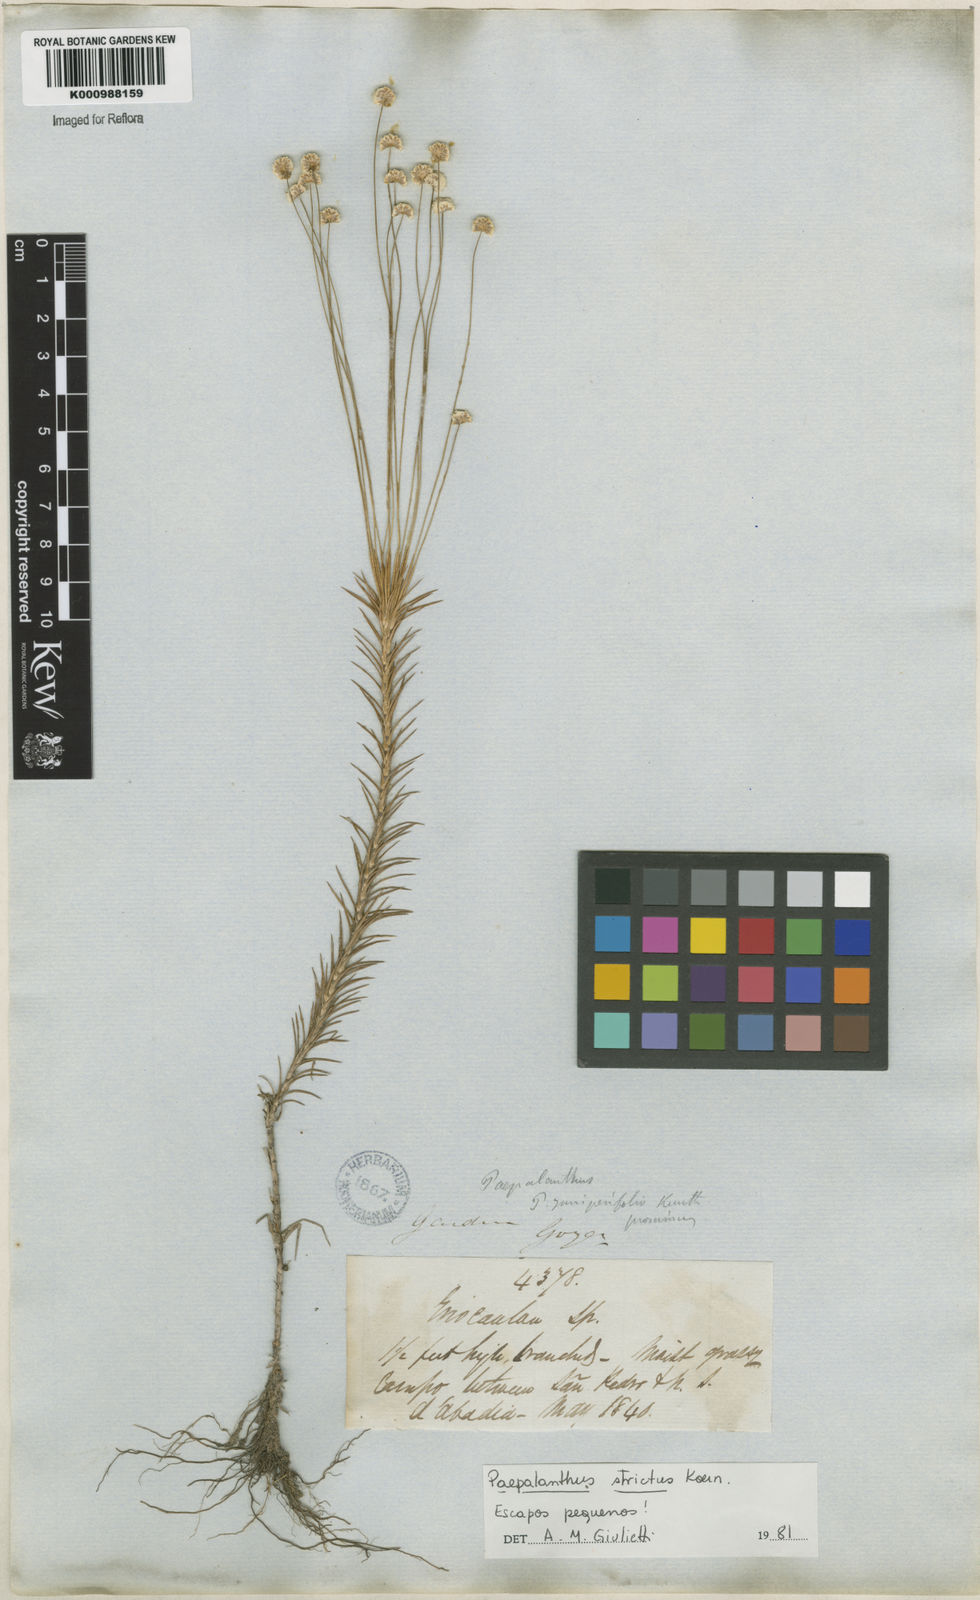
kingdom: Plantae
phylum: Tracheophyta
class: Liliopsida
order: Poales
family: Eriocaulaceae
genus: Paepalanthus
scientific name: Paepalanthus
